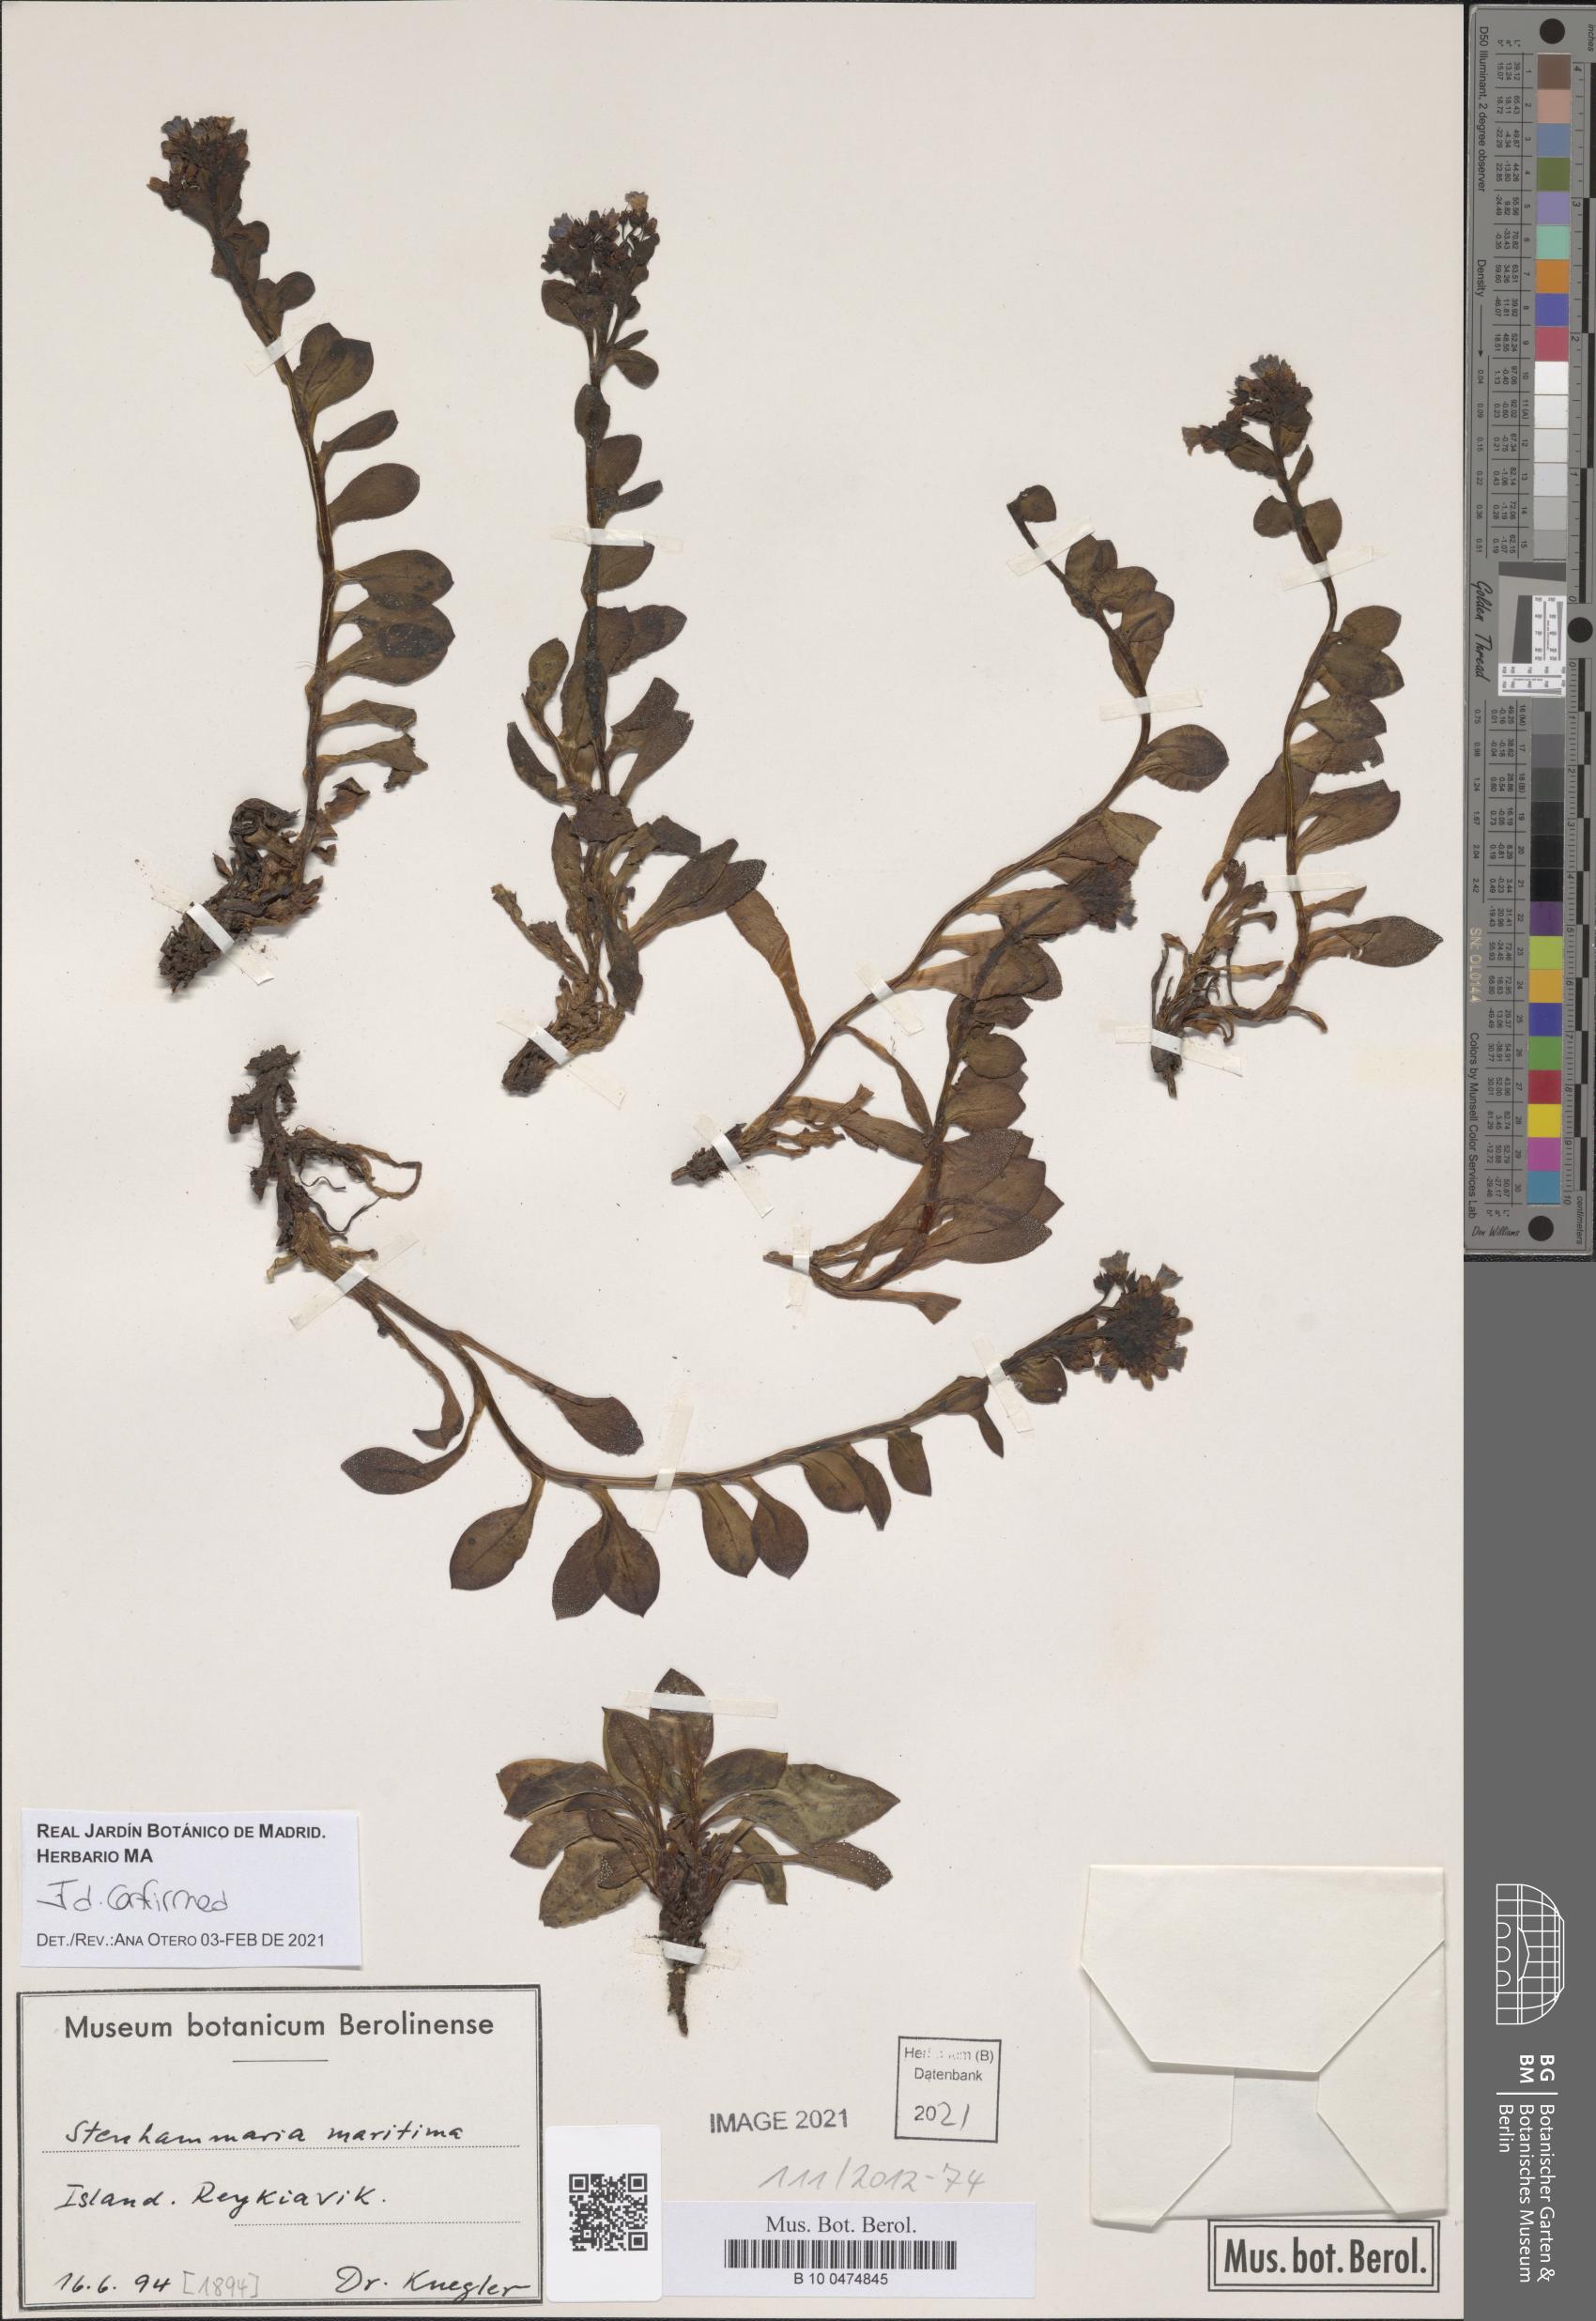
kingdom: Plantae
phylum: Tracheophyta
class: Magnoliopsida
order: Boraginales
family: Boraginaceae
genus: Mertensia
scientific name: Mertensia maritima
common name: Oysterplant
